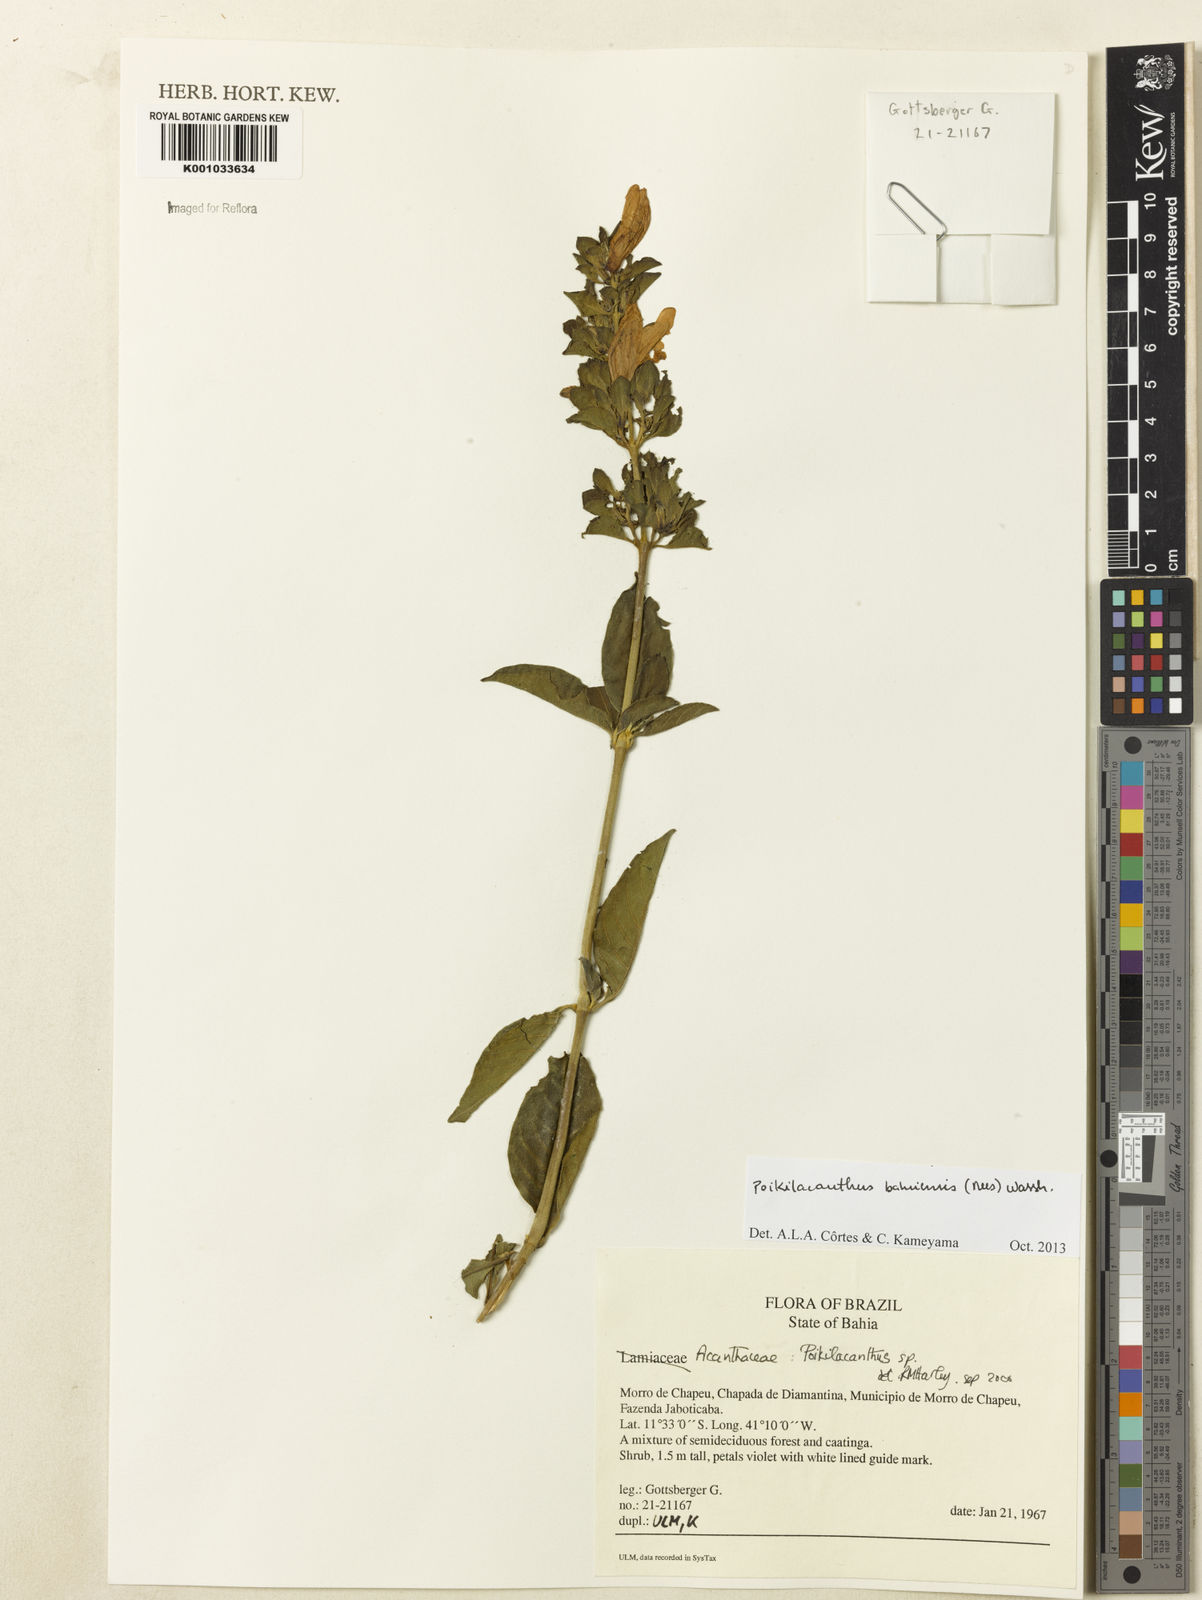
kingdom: Plantae
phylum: Tracheophyta
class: Magnoliopsida
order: Lamiales
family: Acanthaceae
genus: Poikilacanthus
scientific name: Poikilacanthus bahiensis
